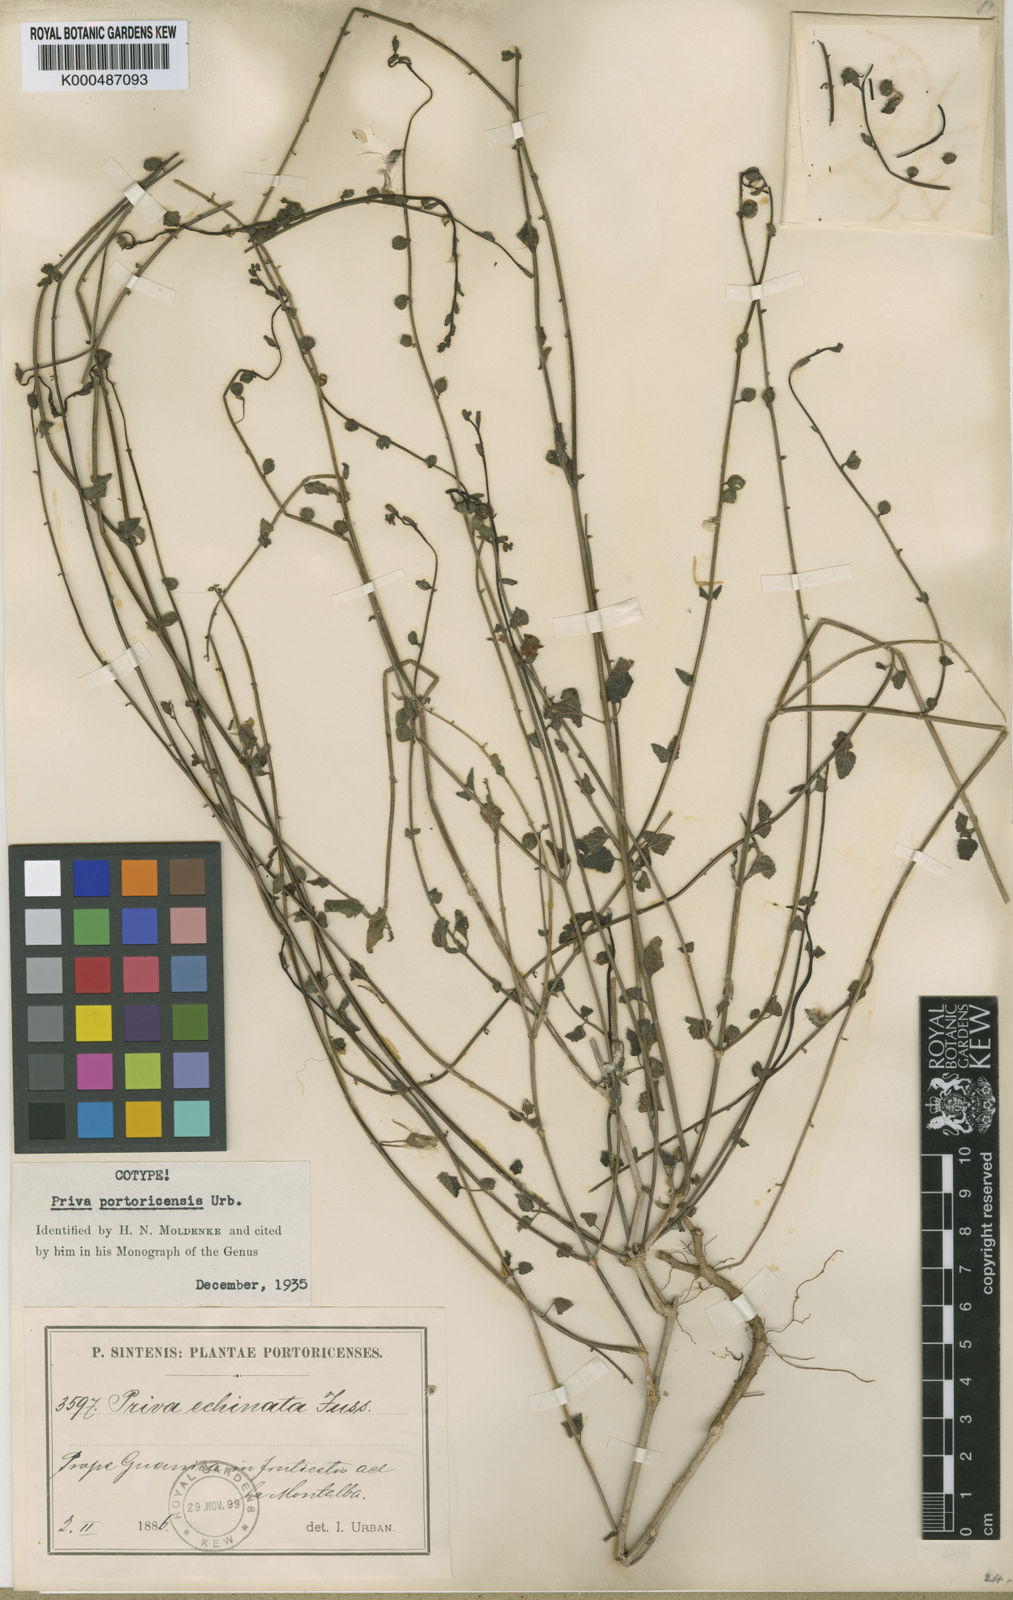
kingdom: Plantae
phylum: Tracheophyta
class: Magnoliopsida
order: Lamiales
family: Verbenaceae
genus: Priva
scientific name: Priva portoricensis
